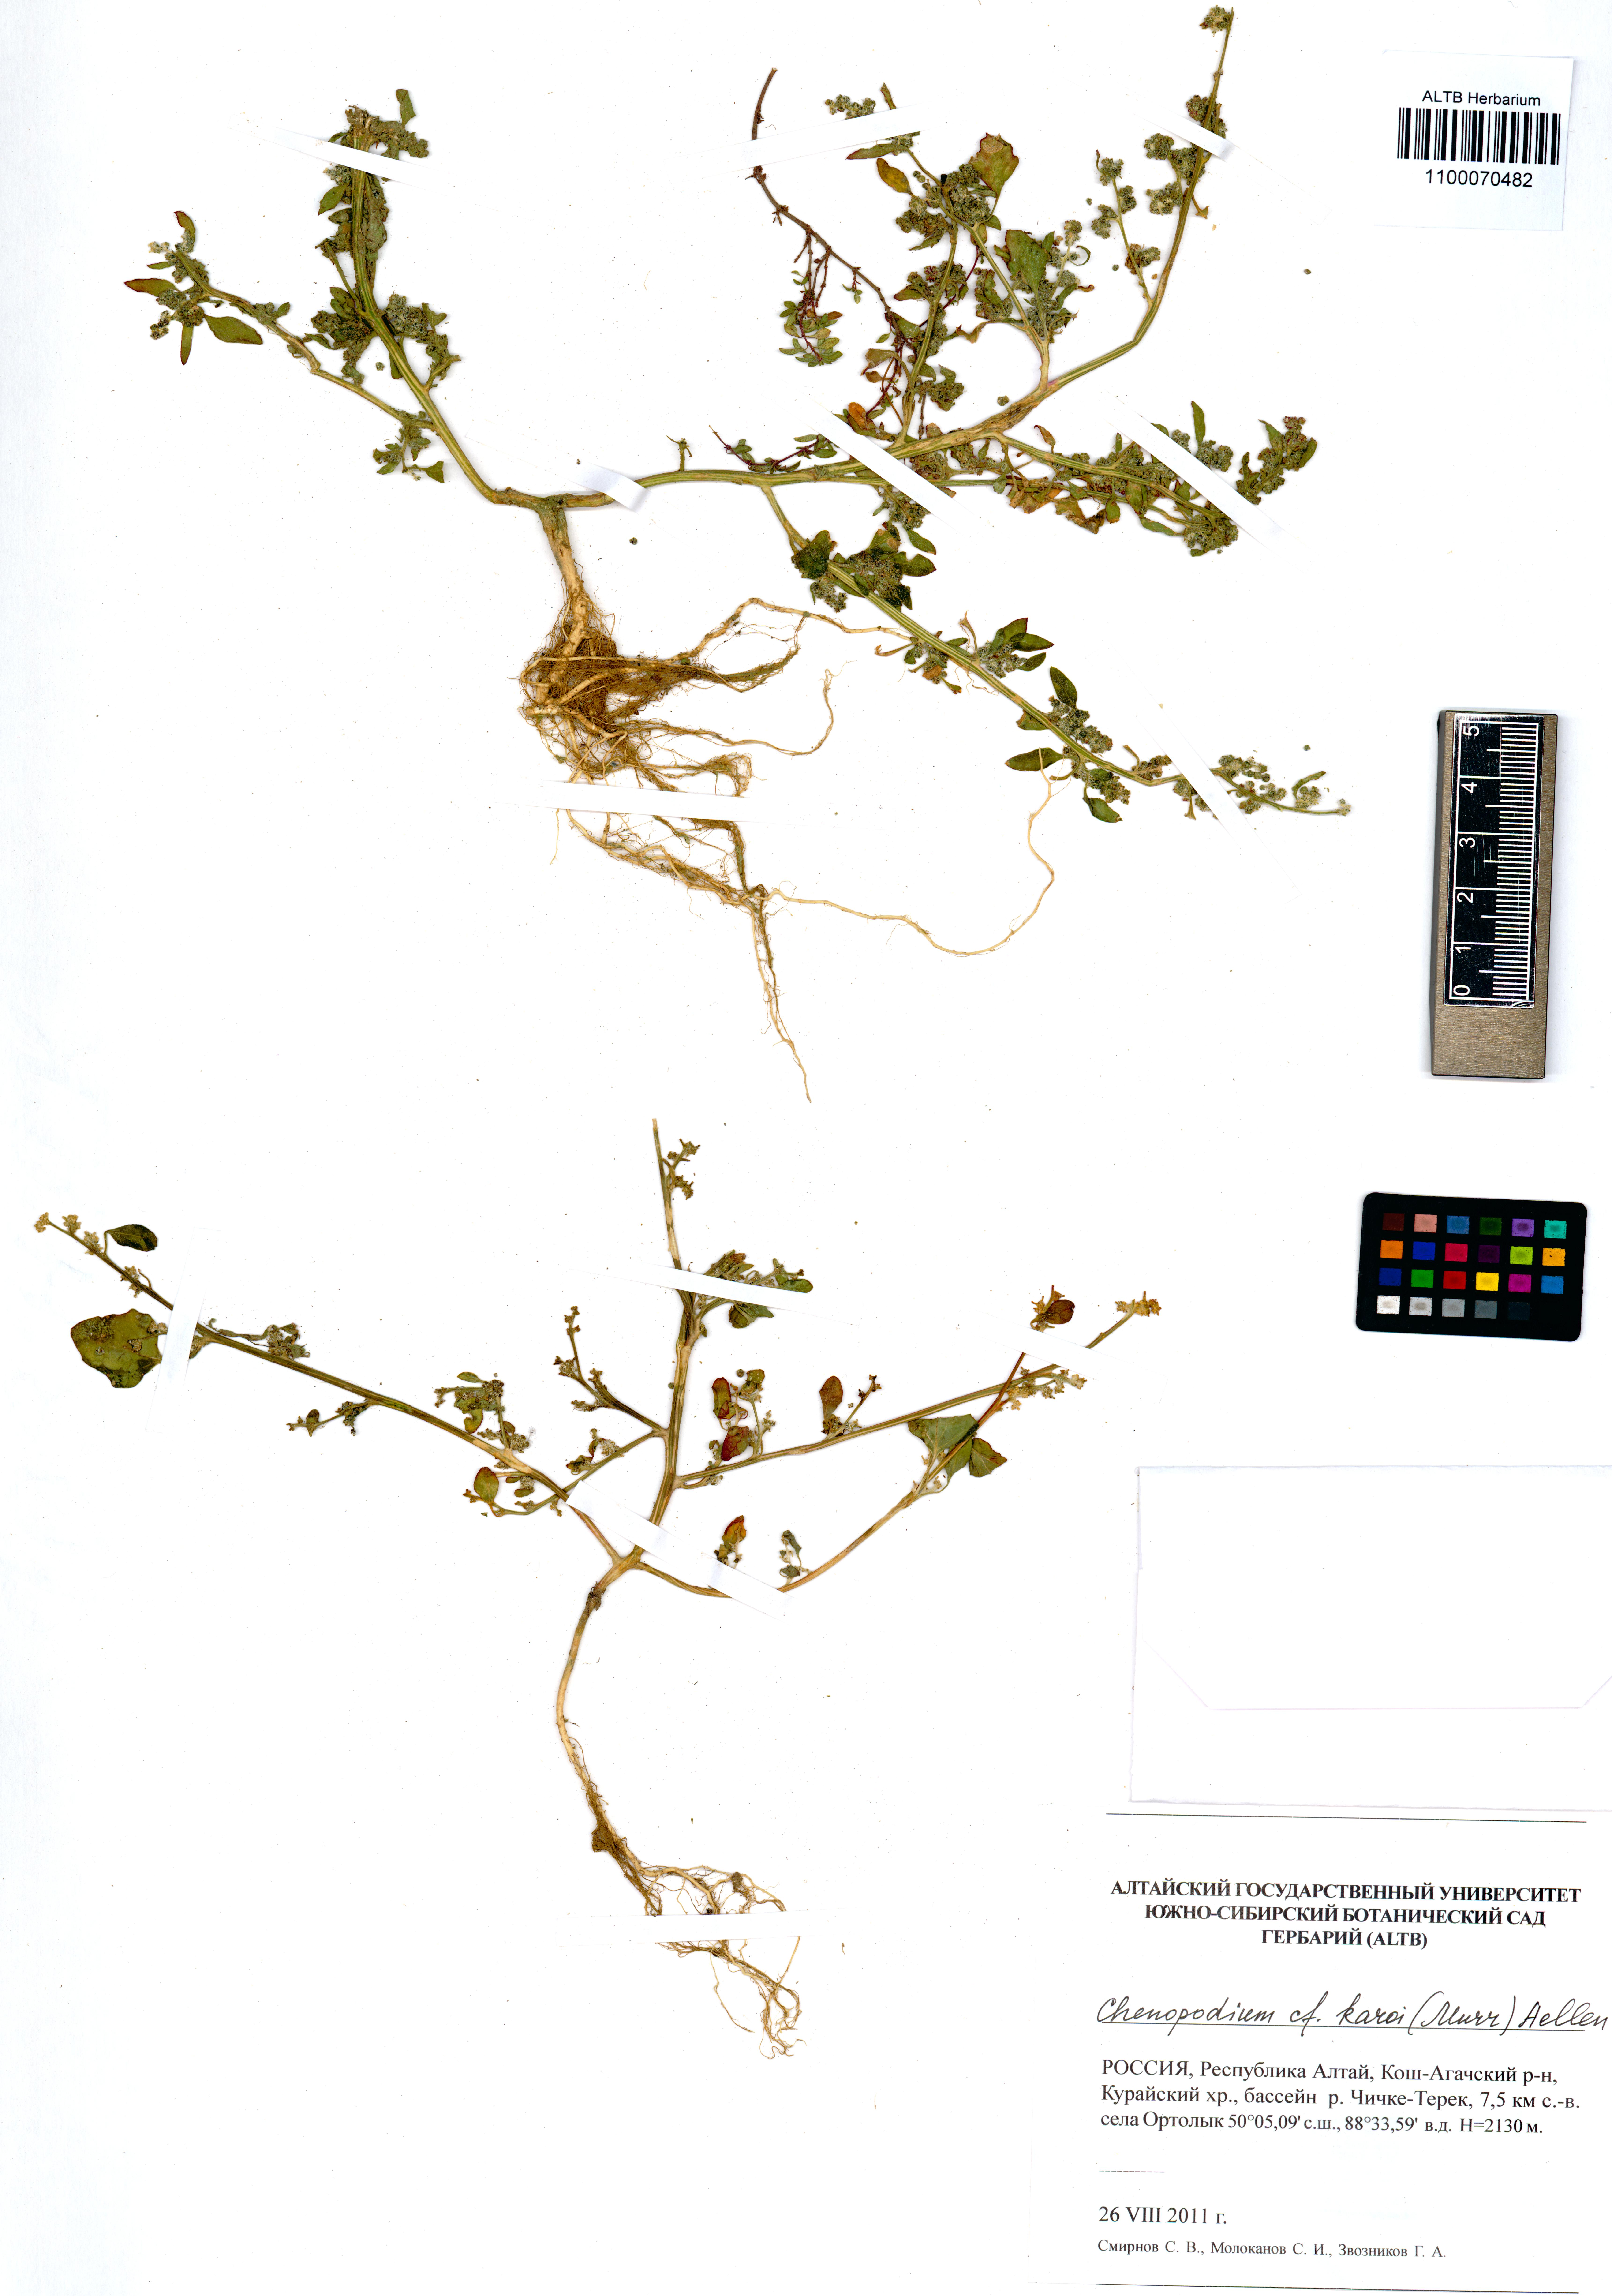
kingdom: Plantae
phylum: Tracheophyta
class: Magnoliopsida
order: Caryophyllales
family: Amaranthaceae
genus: Chenopodium
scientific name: Chenopodium karoi
